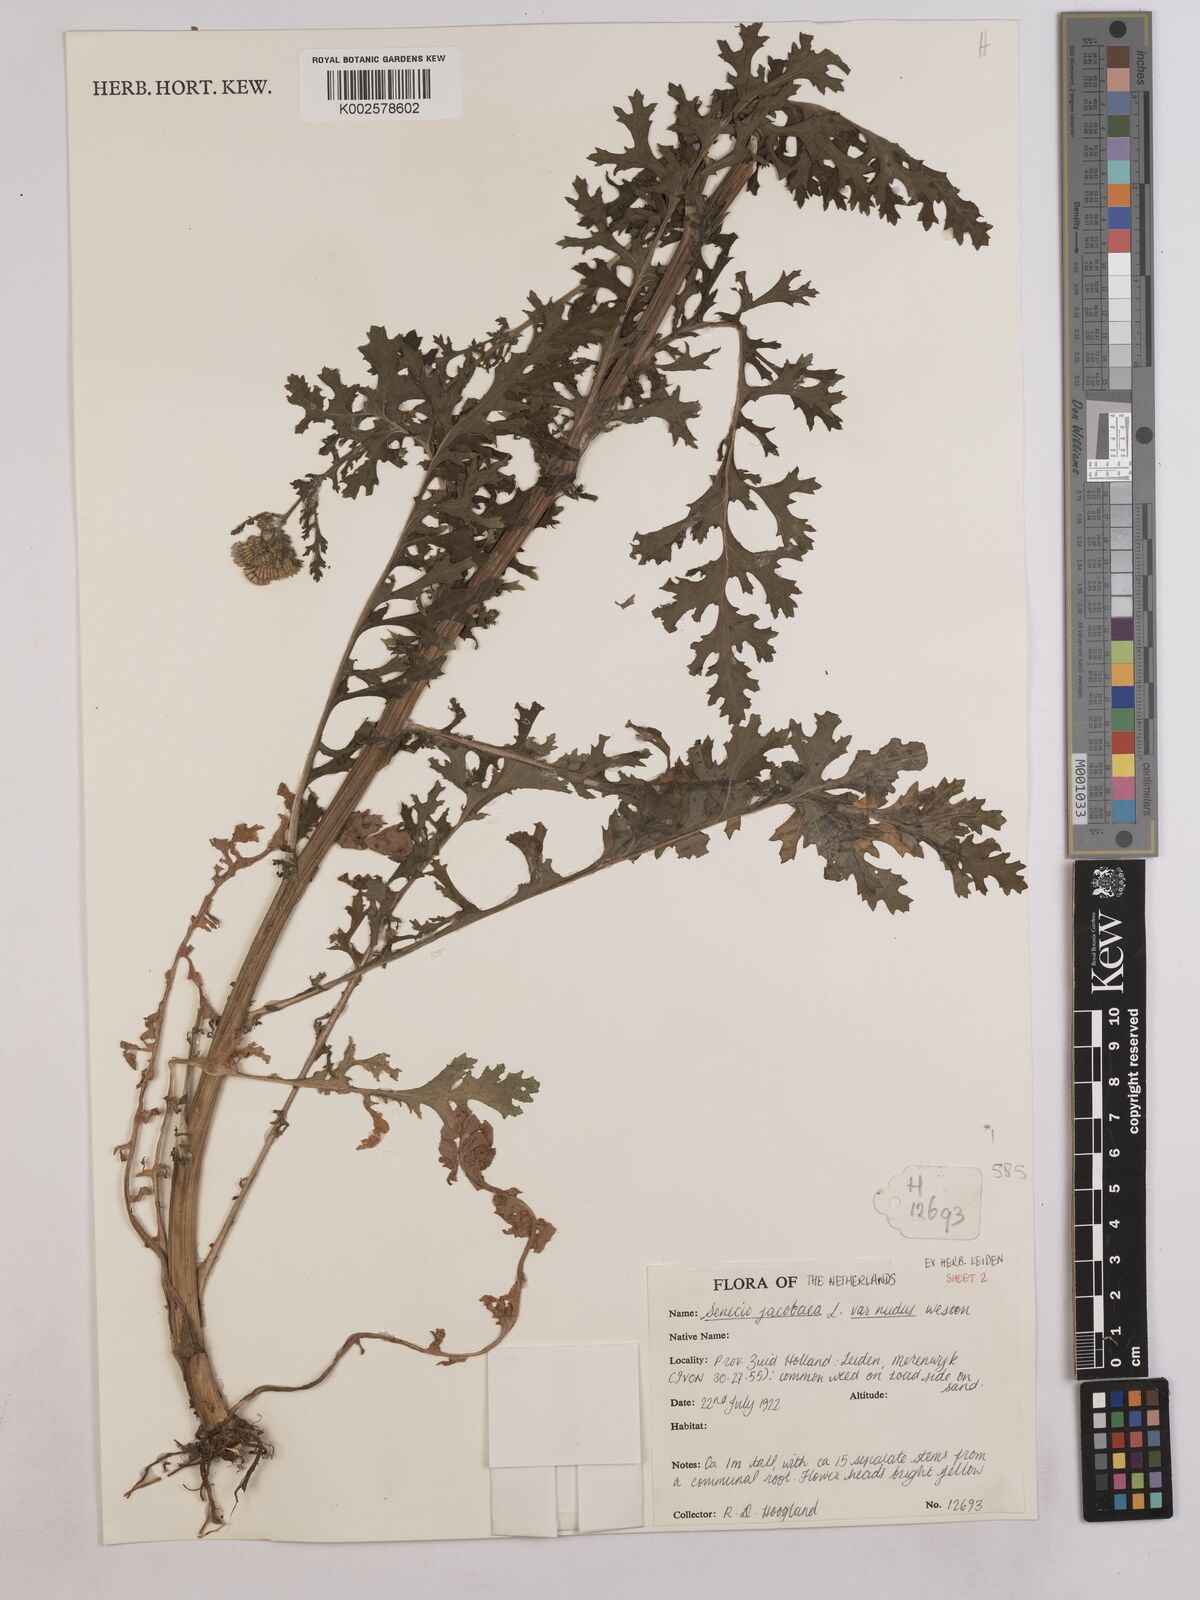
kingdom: Plantae
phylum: Tracheophyta
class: Magnoliopsida
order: Asterales
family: Asteraceae
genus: Jacobaea
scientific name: Jacobaea vulgaris
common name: Stinking willie
